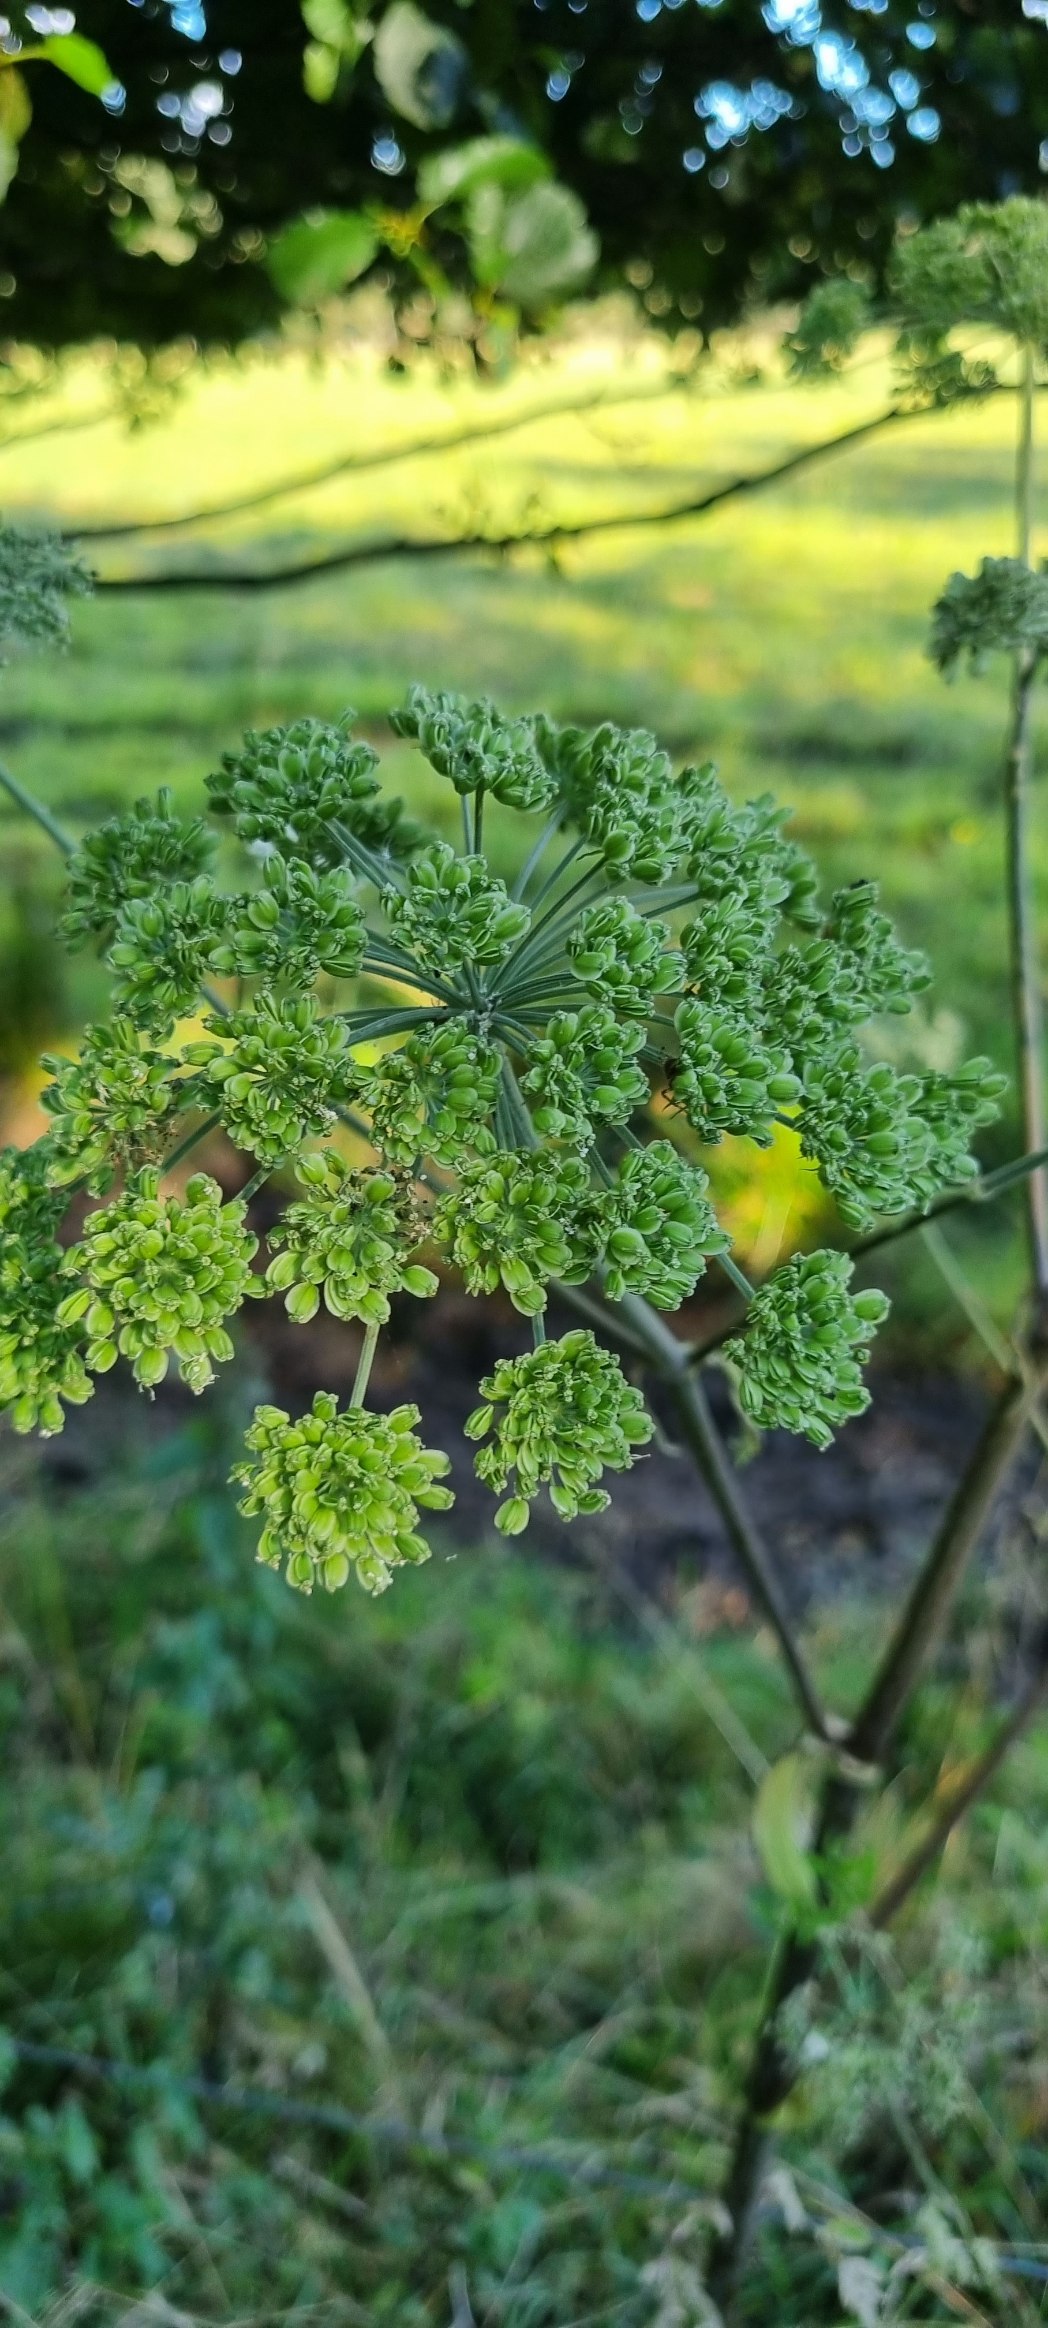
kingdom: Plantae
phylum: Tracheophyta
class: Magnoliopsida
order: Apiales
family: Apiaceae
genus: Angelica
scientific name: Angelica sylvestris
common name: Angelik
